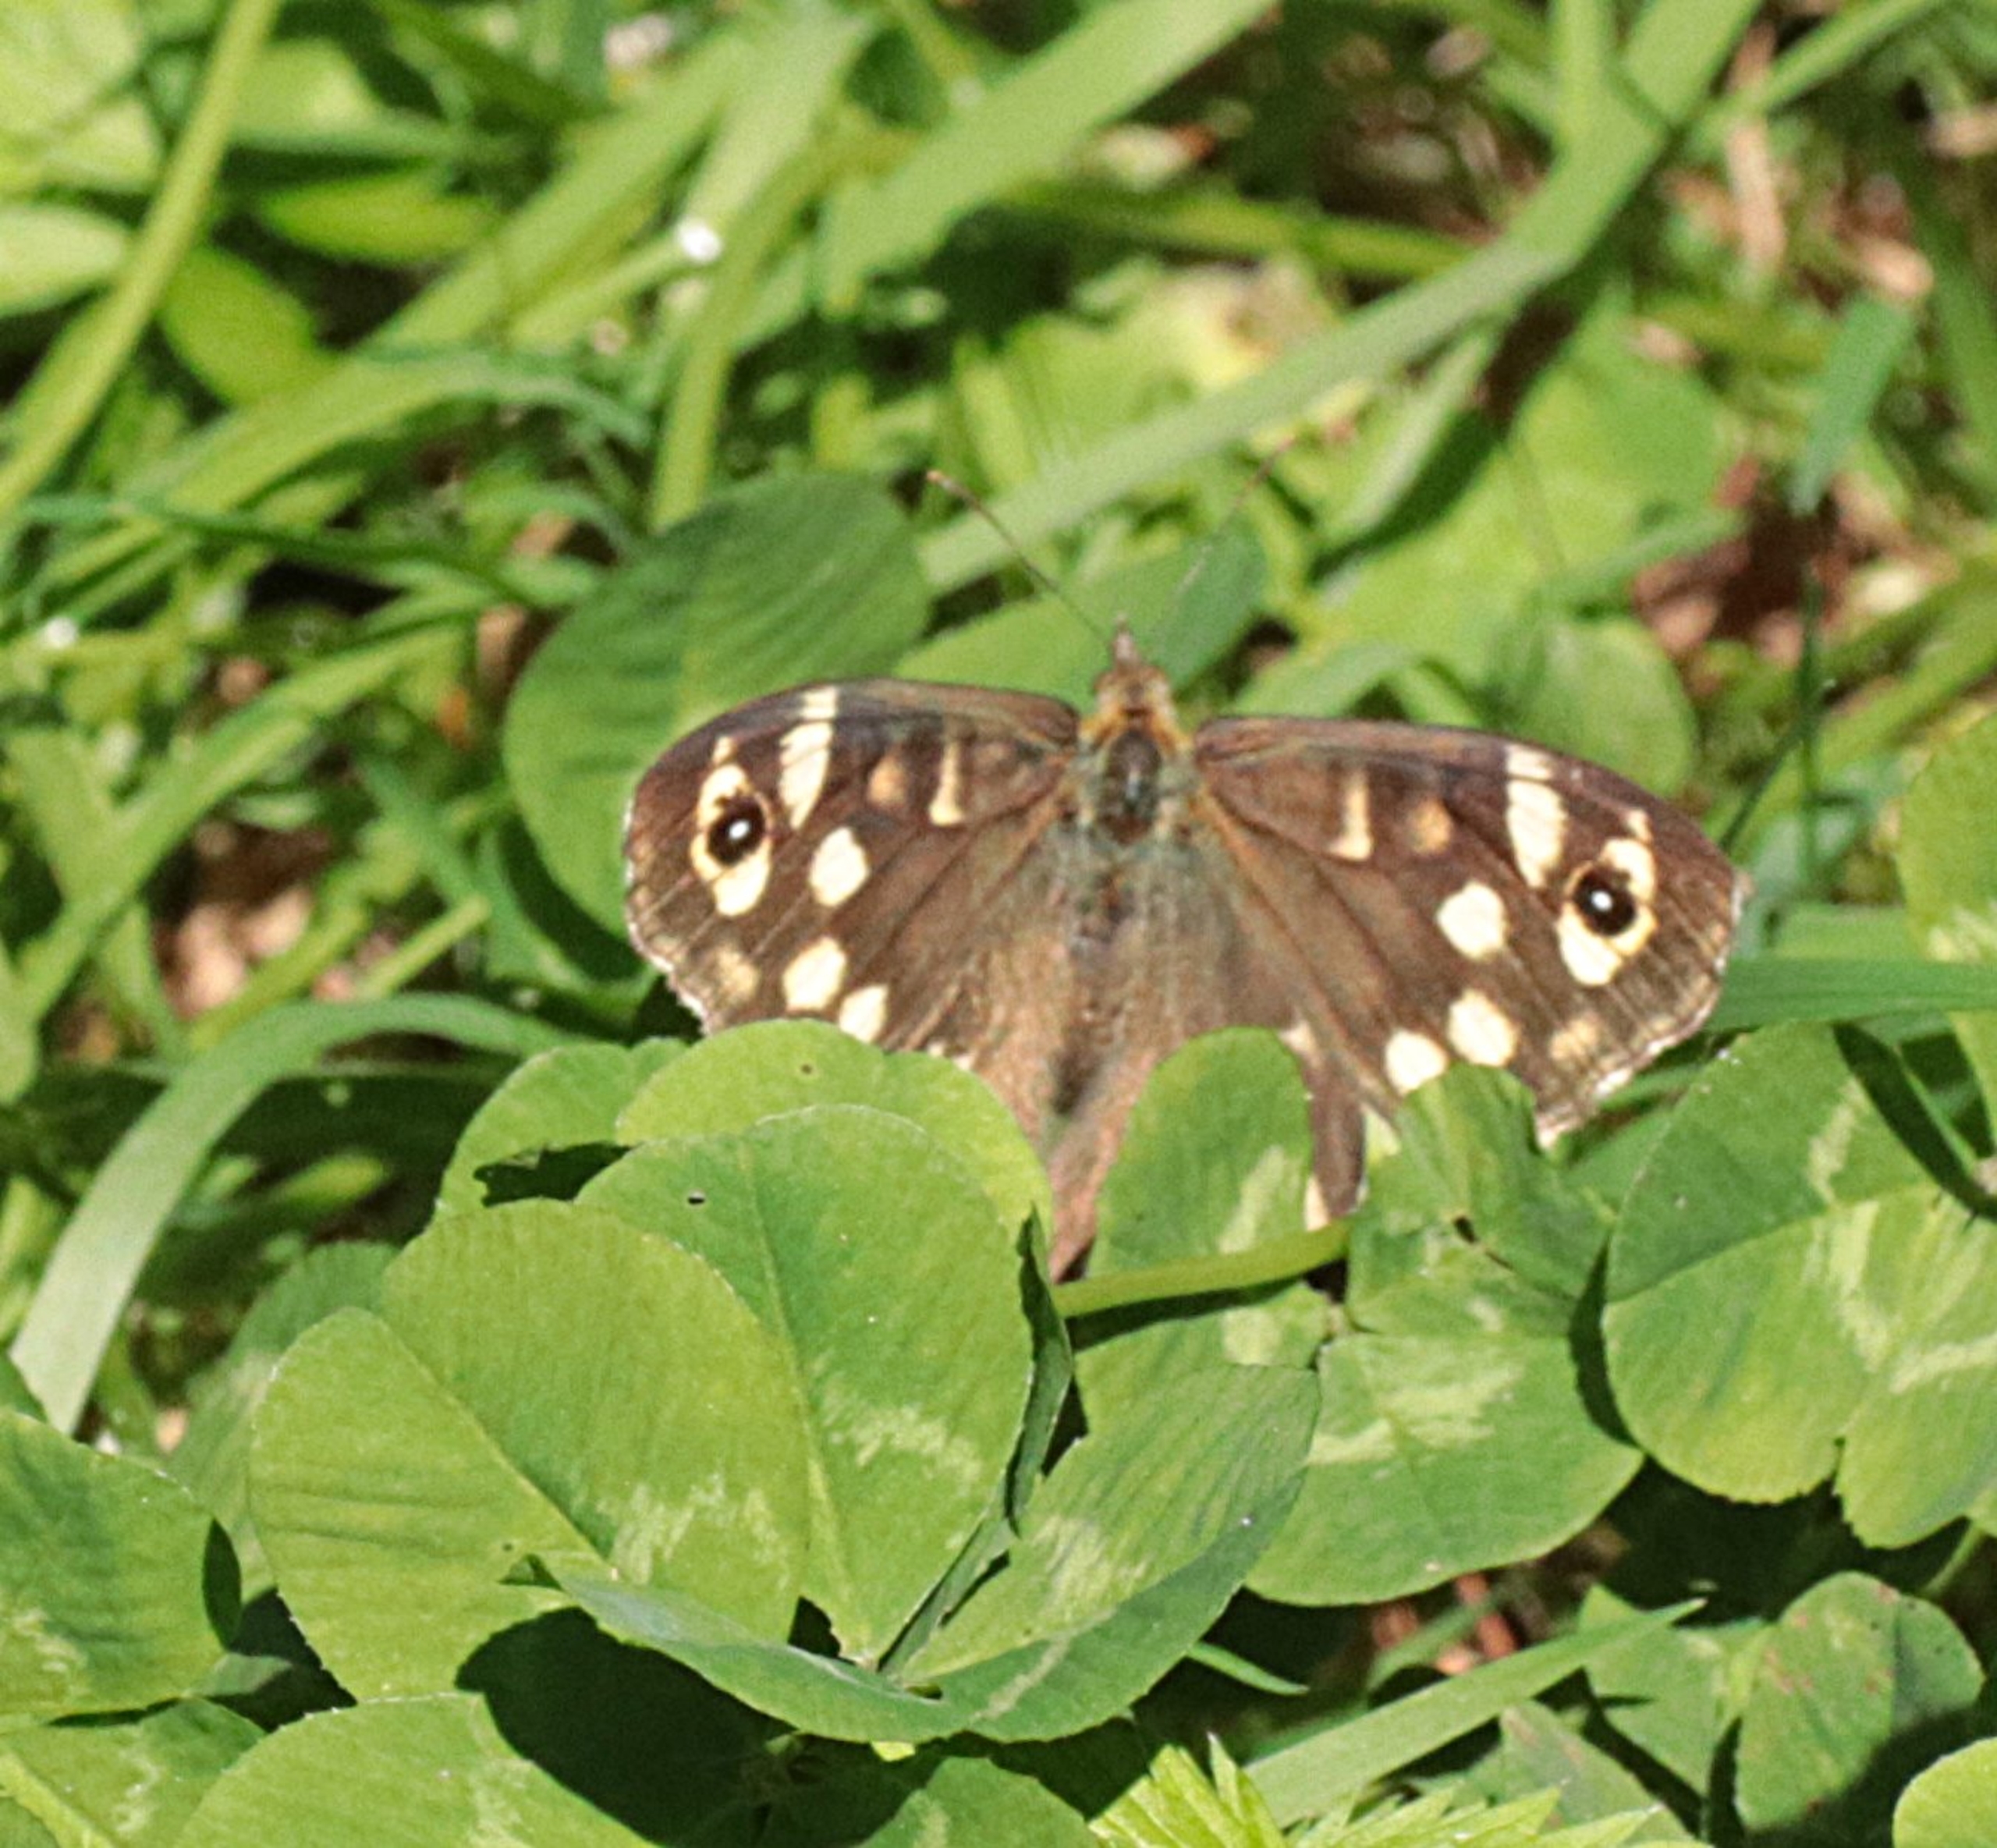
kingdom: Animalia
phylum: Arthropoda
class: Insecta
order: Lepidoptera
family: Nymphalidae
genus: Pararge
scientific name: Pararge aegeria
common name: Skovrandøje
